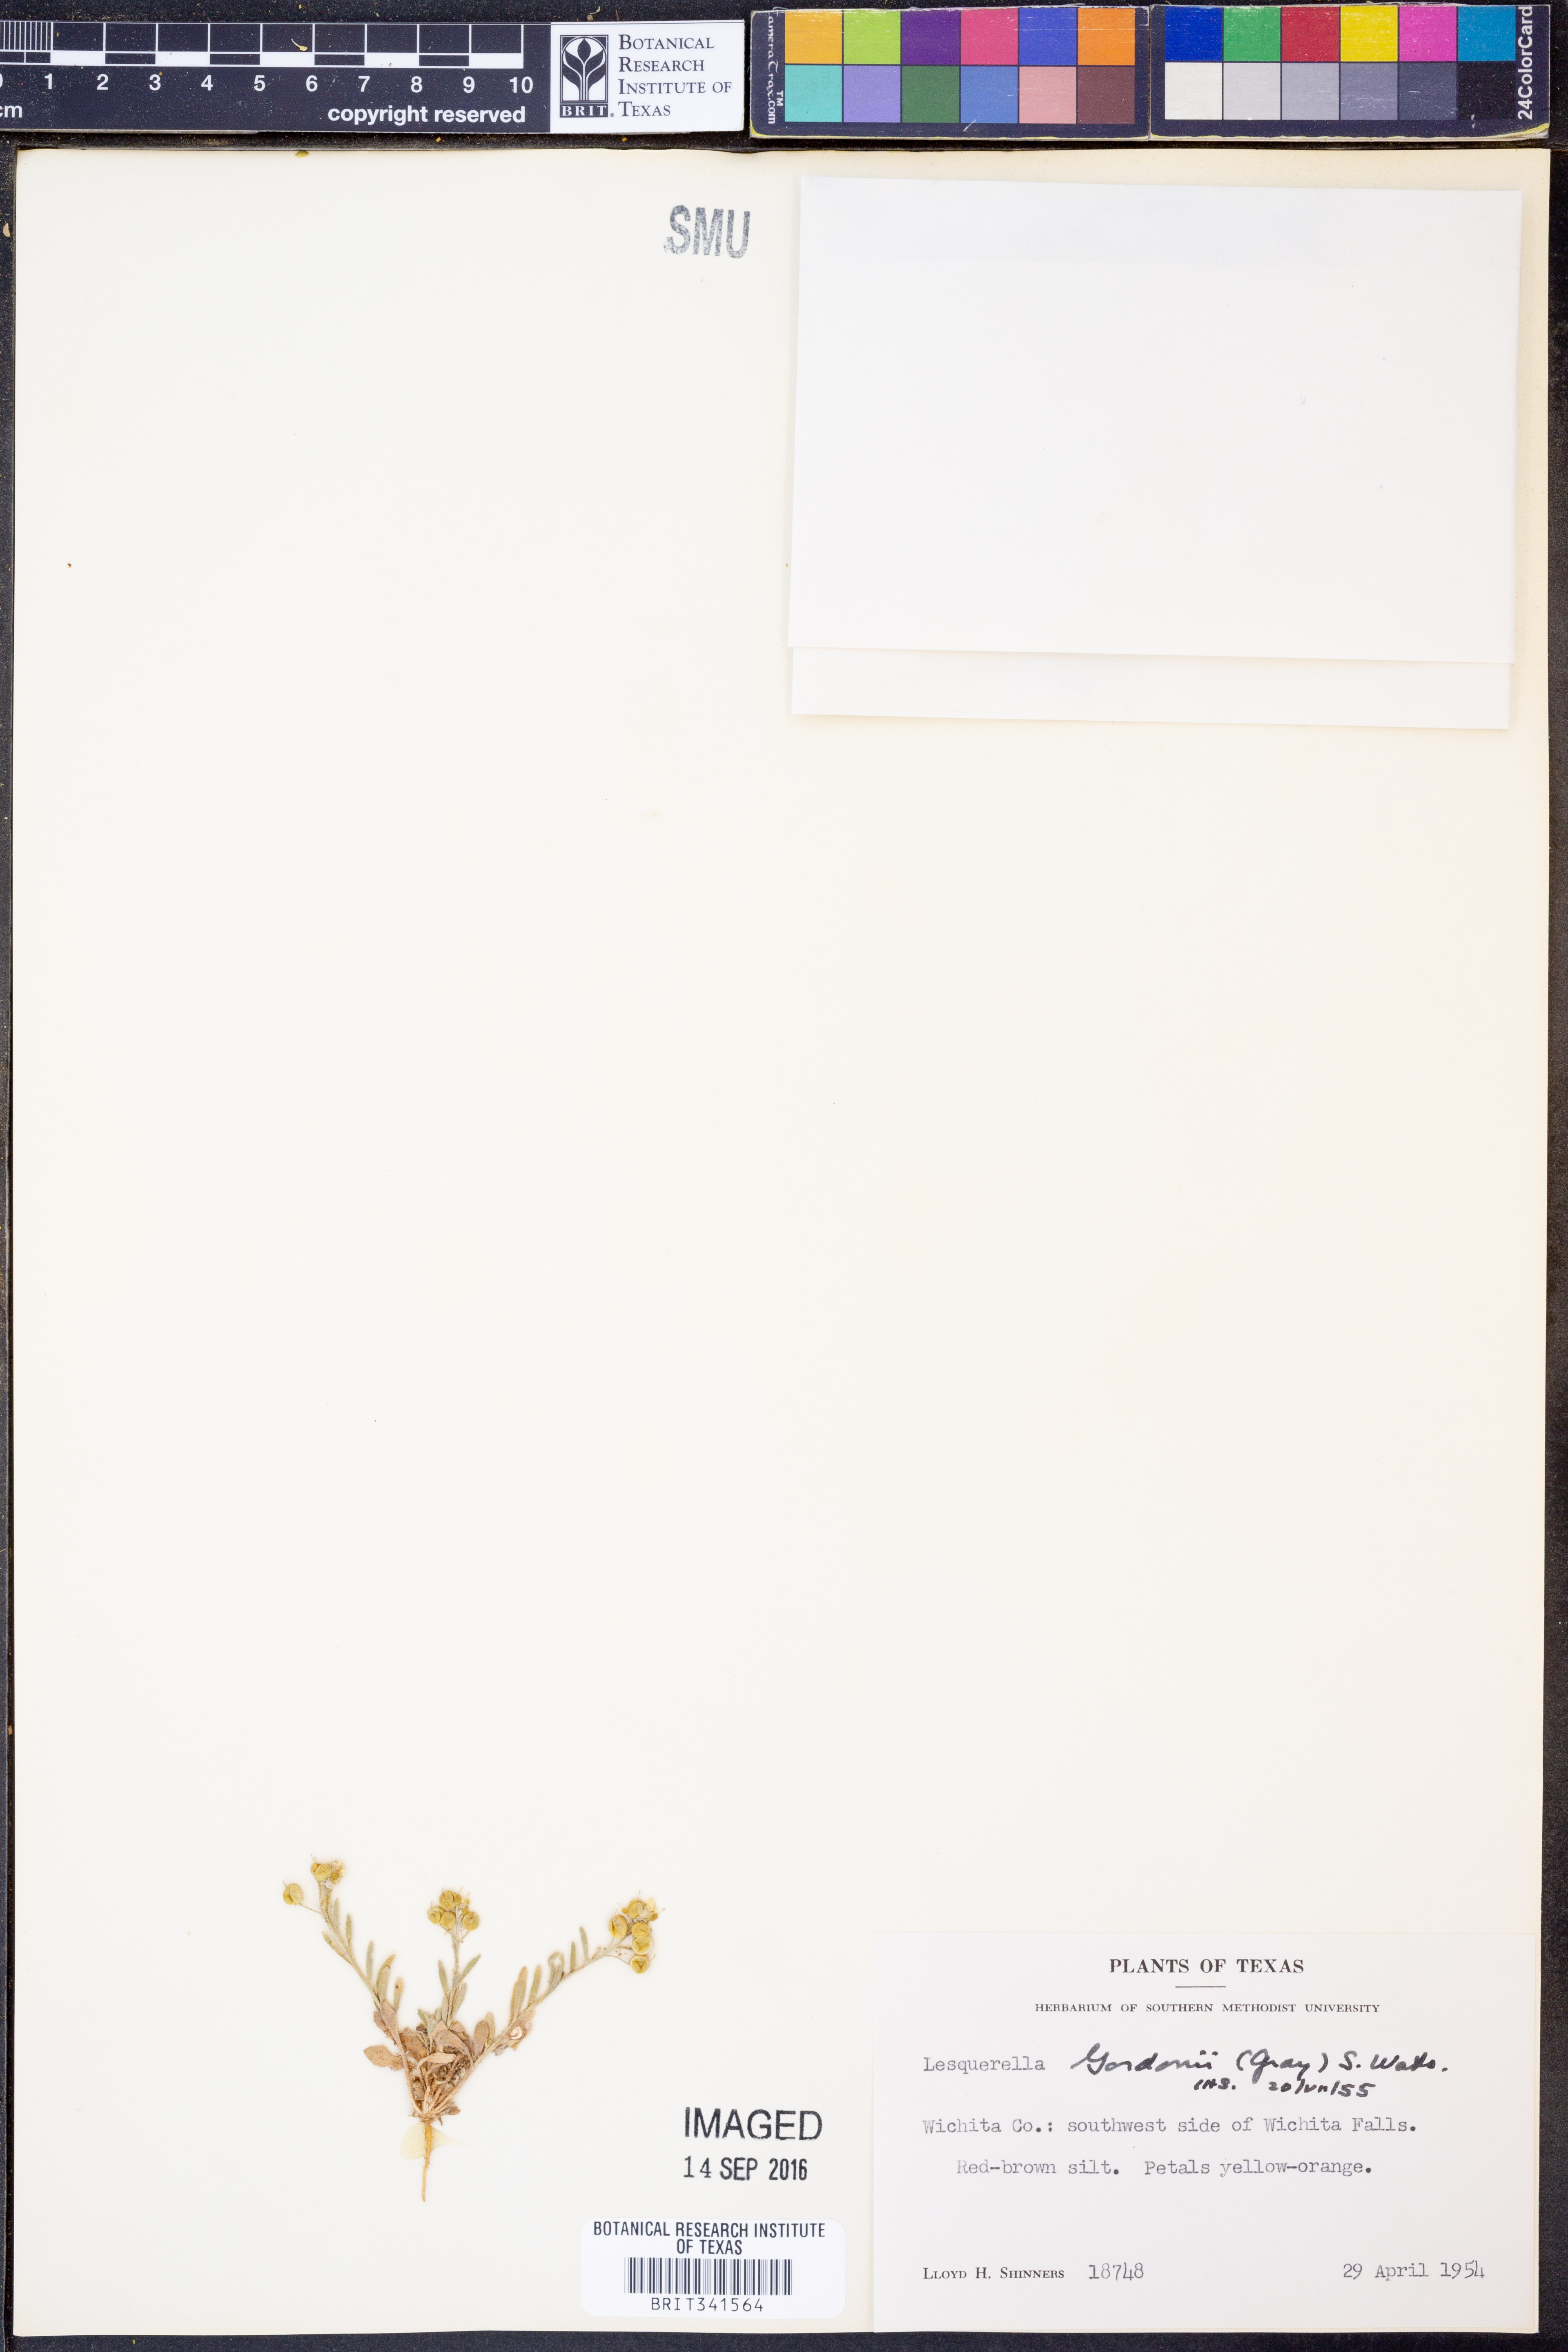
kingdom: Plantae
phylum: Tracheophyta
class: Magnoliopsida
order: Brassicales
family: Brassicaceae
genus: Physaria
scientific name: Physaria gordonii
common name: Gordon's bladderpod
